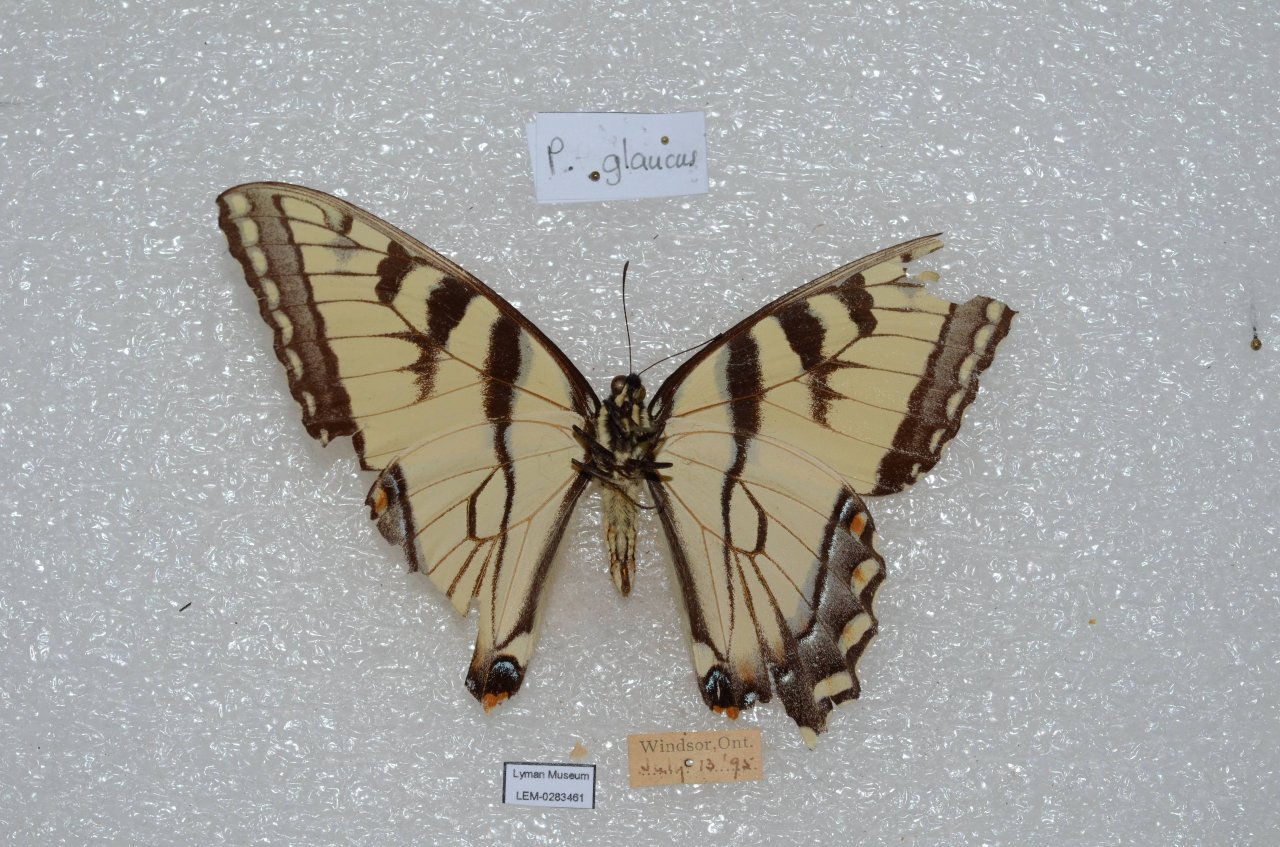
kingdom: Animalia
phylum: Arthropoda
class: Insecta
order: Lepidoptera
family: Papilionidae
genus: Pterourus
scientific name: Pterourus glaucus
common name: Eastern Tiger Swallowtail
